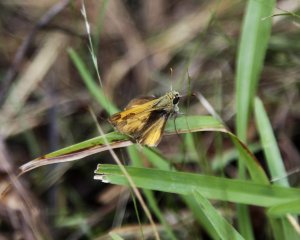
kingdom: Animalia
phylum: Arthropoda
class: Insecta
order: Lepidoptera
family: Hesperiidae
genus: Hylephila
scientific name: Hylephila phyleus
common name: Fiery Skipper
